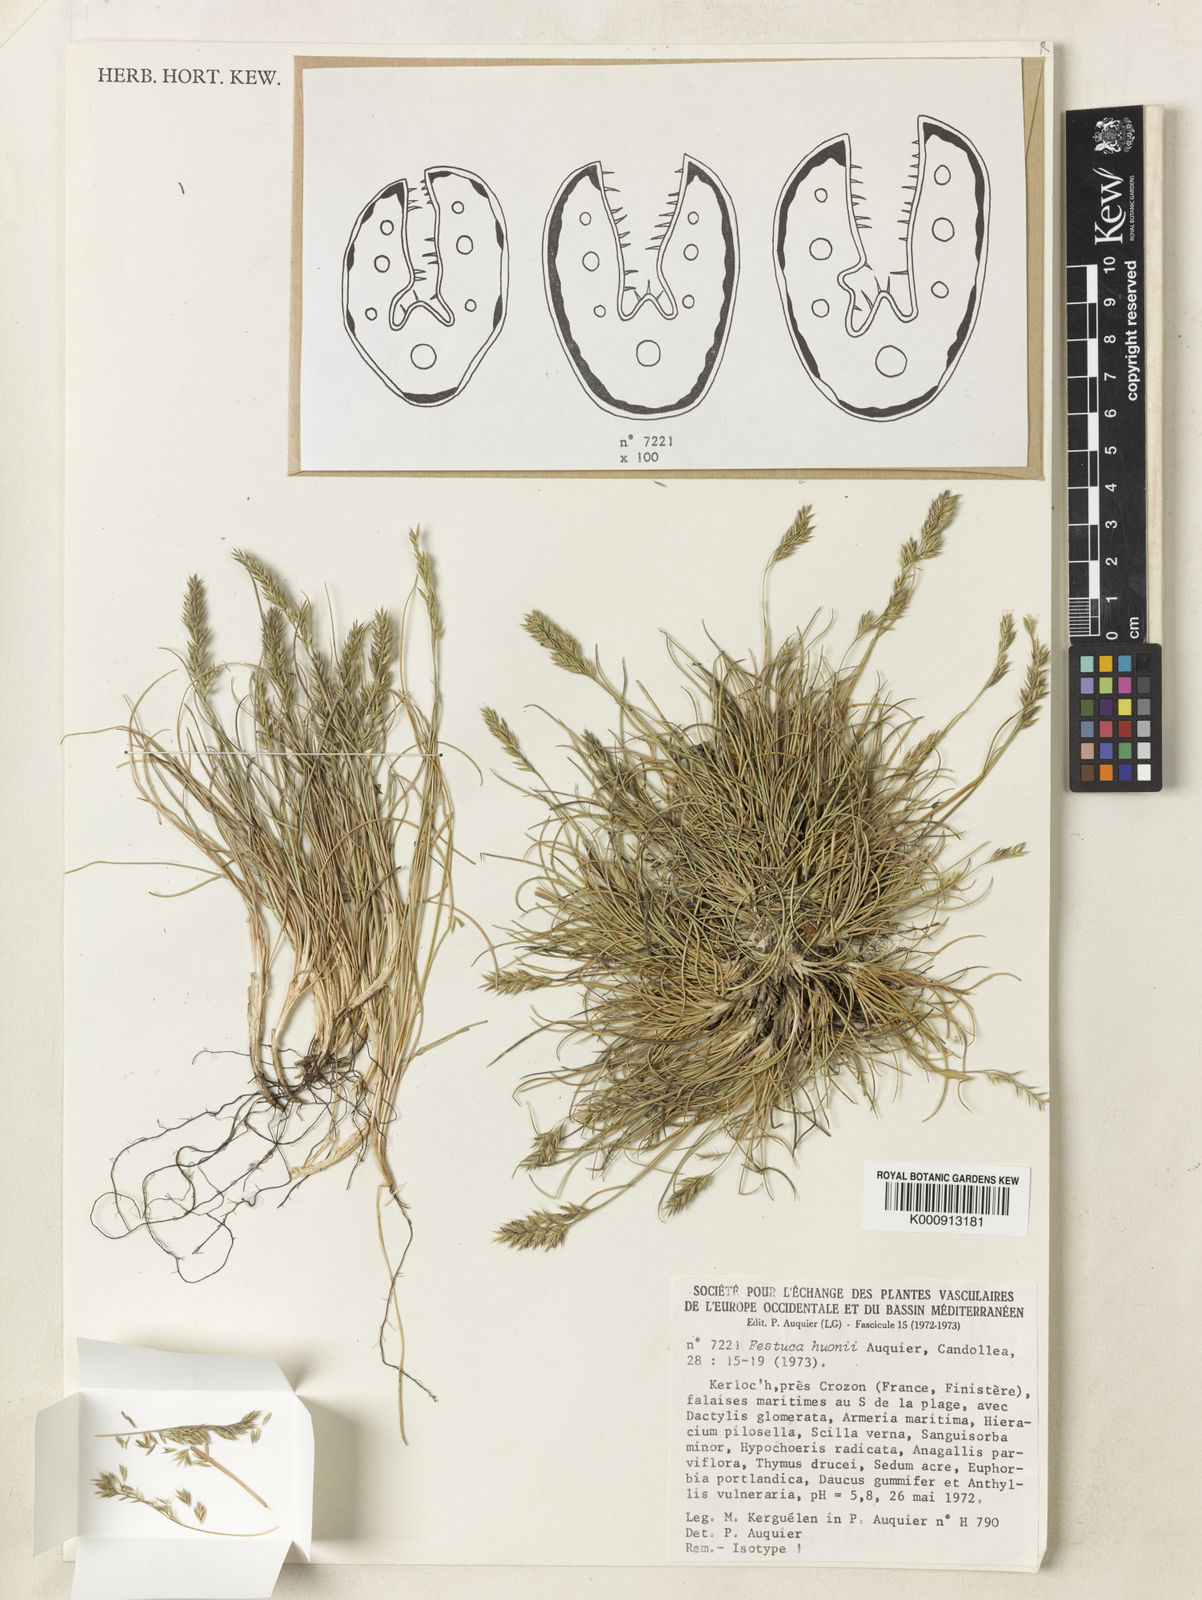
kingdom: Plantae
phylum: Tracheophyta
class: Liliopsida
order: Poales
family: Poaceae
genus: Festuca
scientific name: Festuca huonii
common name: Huon's fescue
